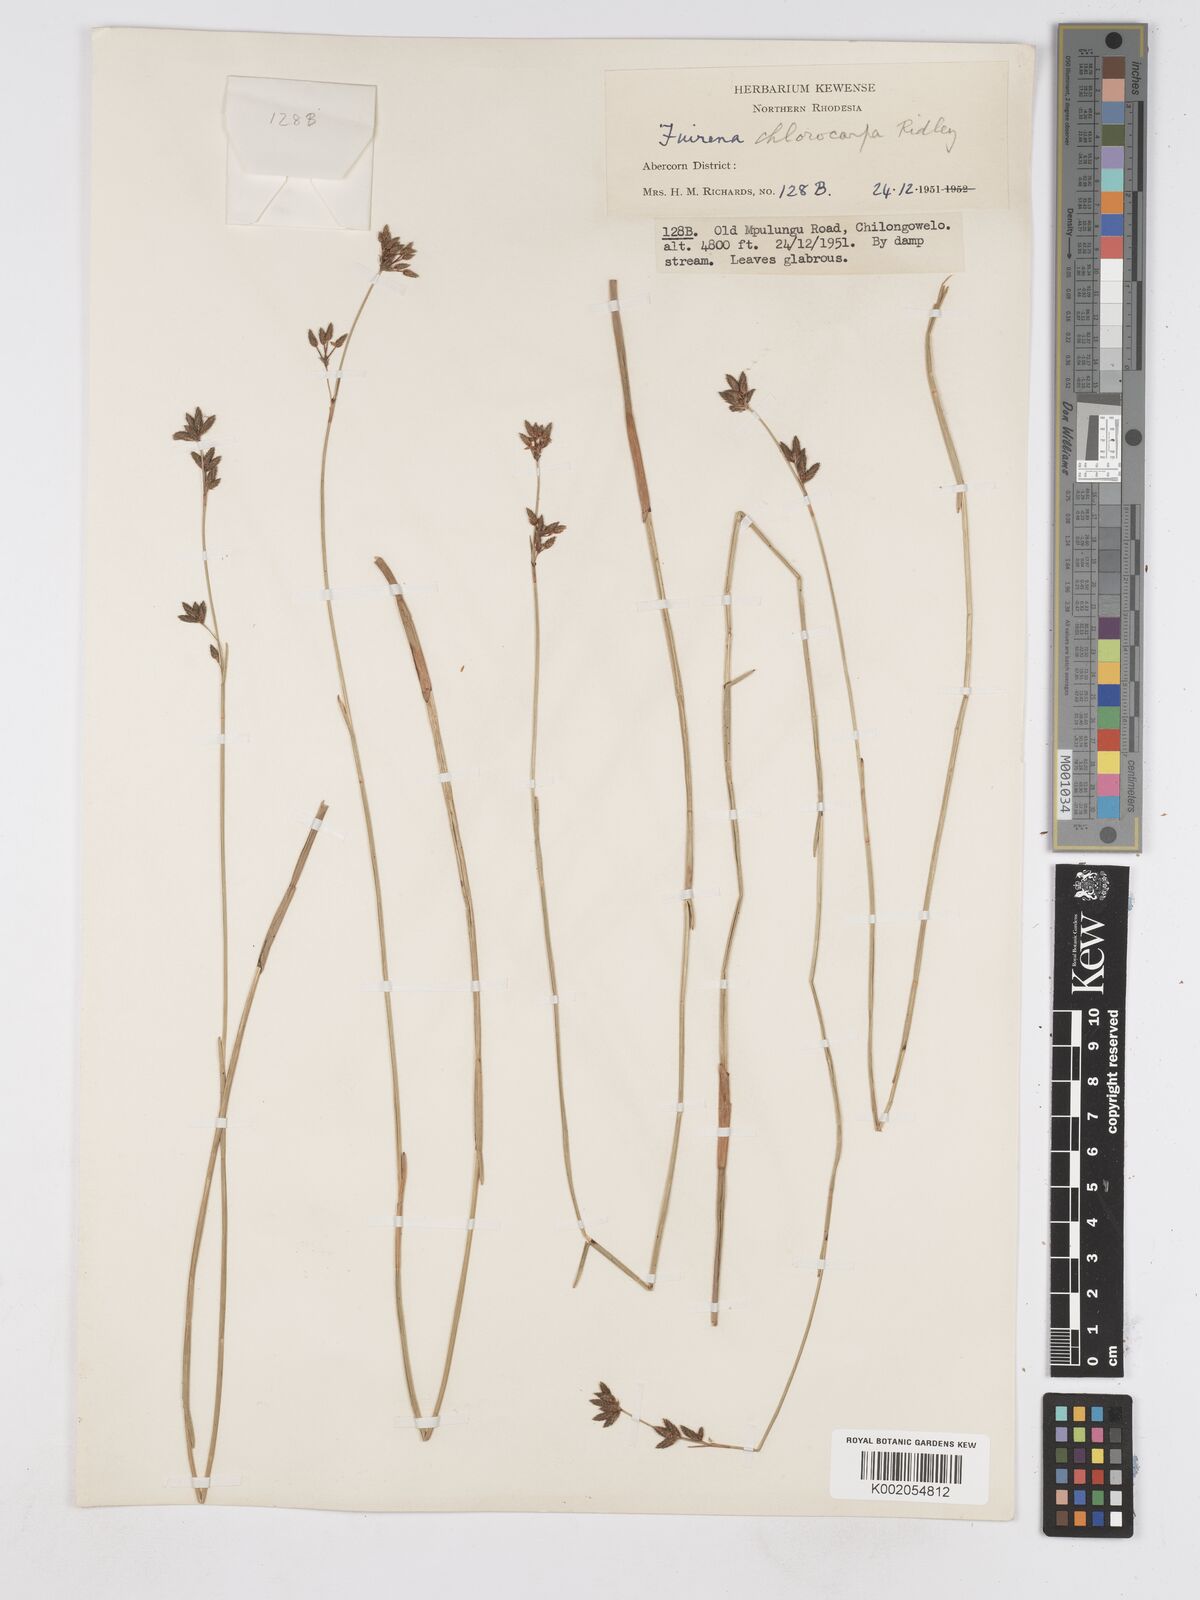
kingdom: Plantae
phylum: Tracheophyta
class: Liliopsida
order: Poales
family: Cyperaceae
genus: Fuirena
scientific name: Fuirena stricta
